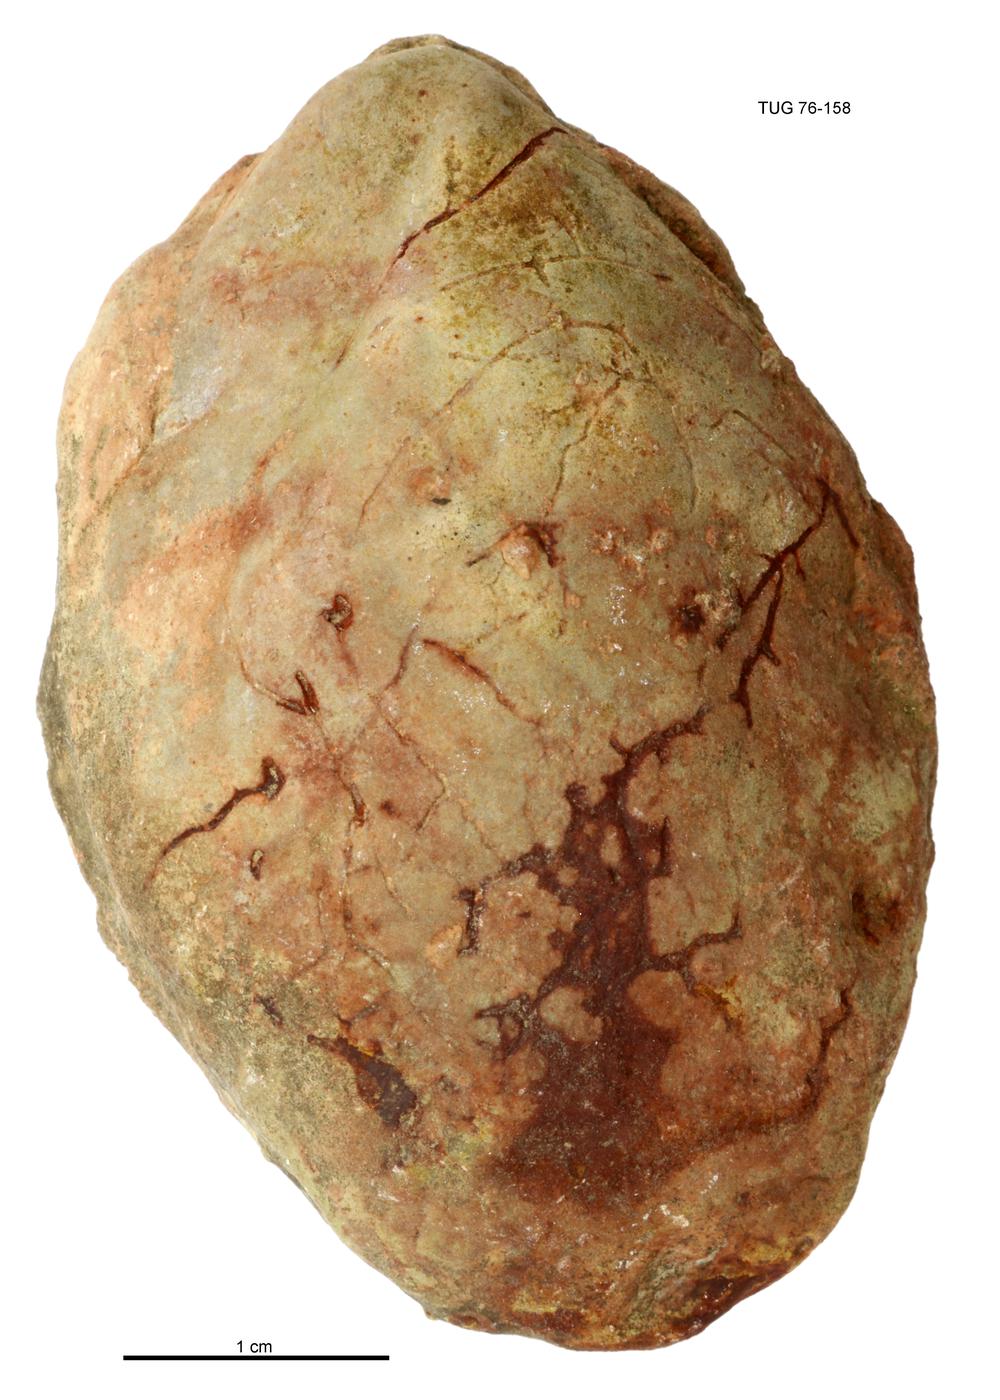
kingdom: Animalia
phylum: Mollusca
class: Bivalvia
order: Cyrtodontida
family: Cyrtodontidae
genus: Cypricardites
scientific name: Cypricardites
